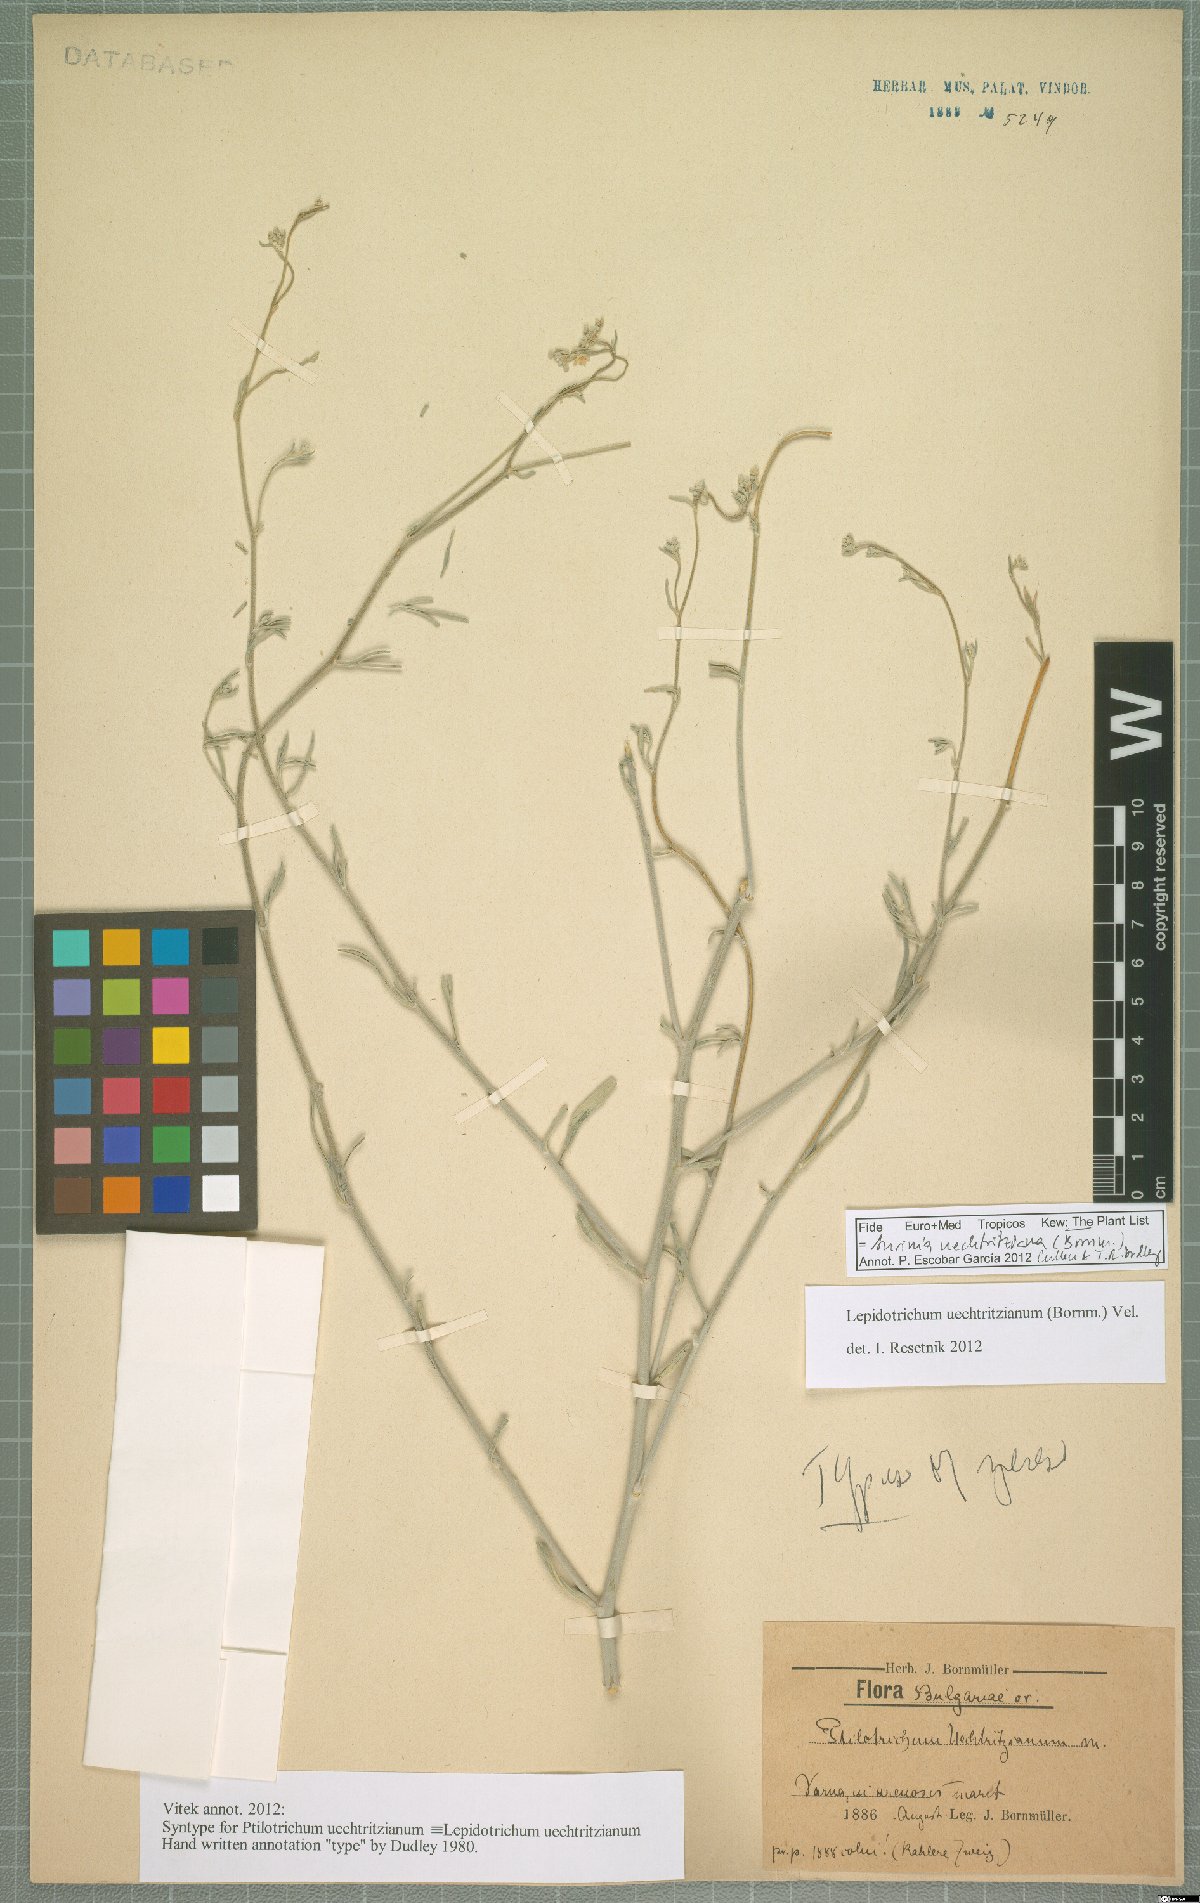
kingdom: Plantae
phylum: Tracheophyta
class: Magnoliopsida
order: Brassicales
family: Brassicaceae
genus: Lepidotrichum
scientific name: Lepidotrichum uechtritzianum
